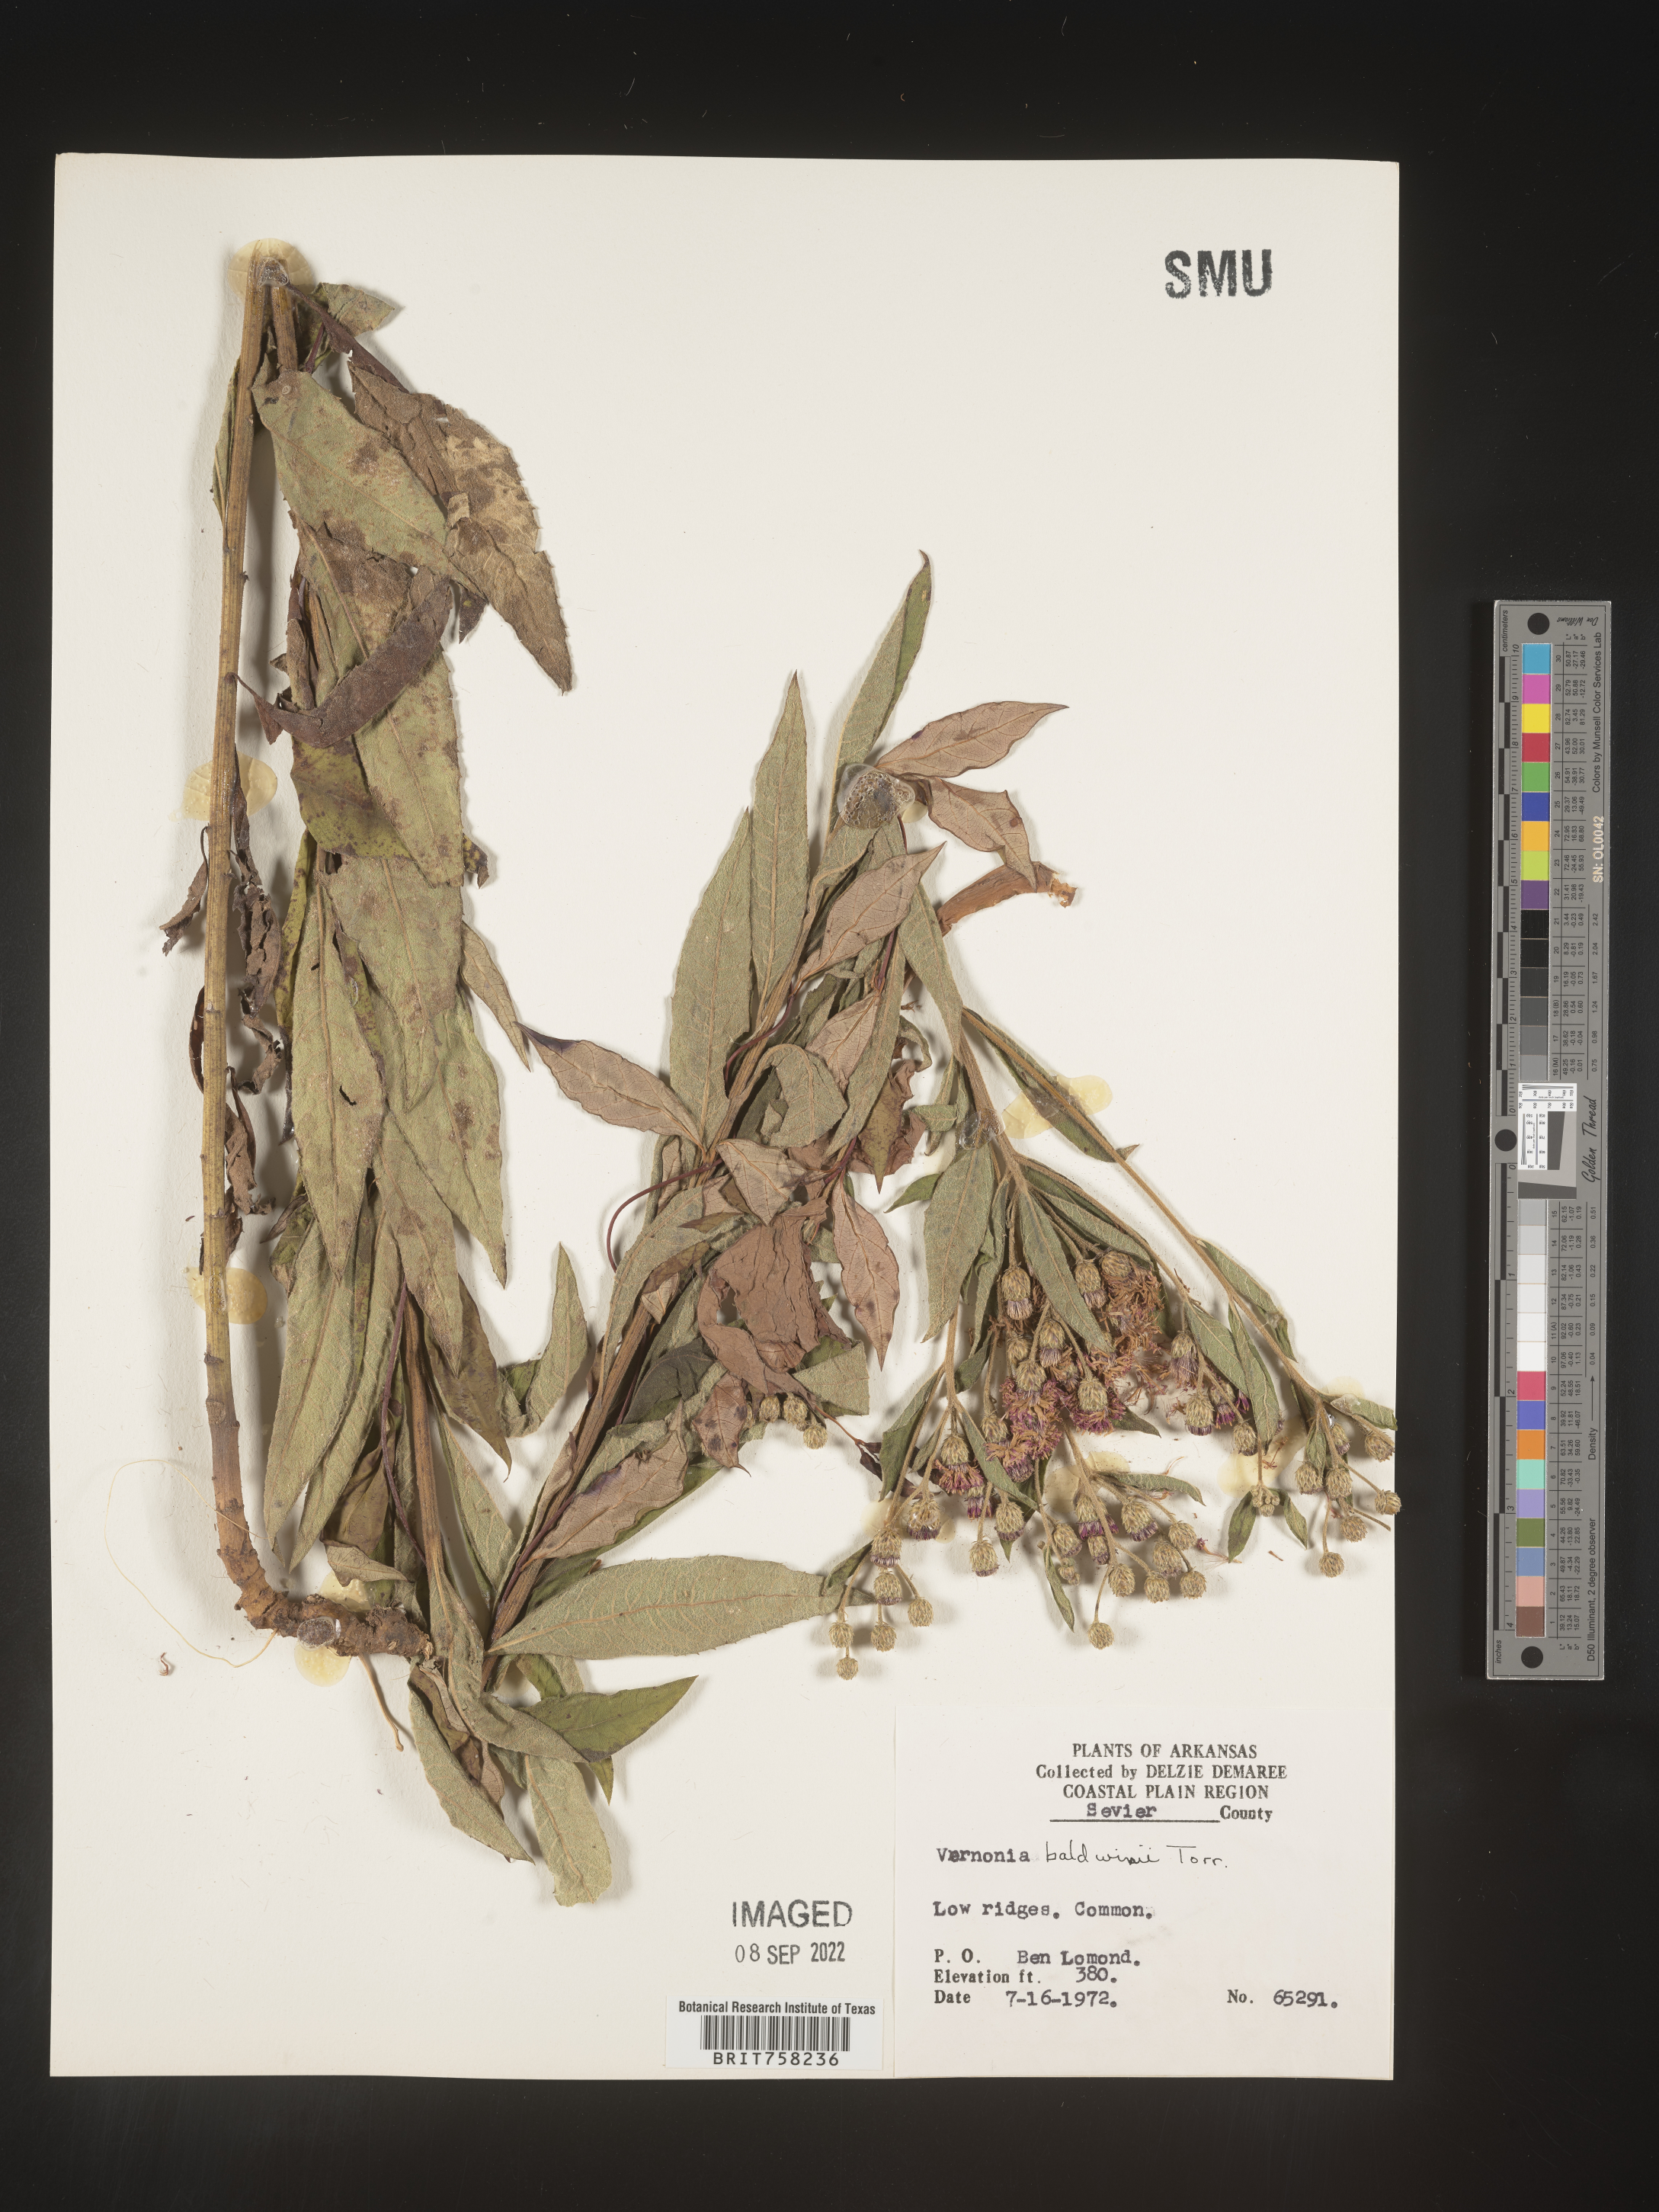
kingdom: Plantae
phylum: Tracheophyta
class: Magnoliopsida
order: Asterales
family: Asteraceae
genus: Vernonia
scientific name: Vernonia baldwinii
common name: Western ironweed
